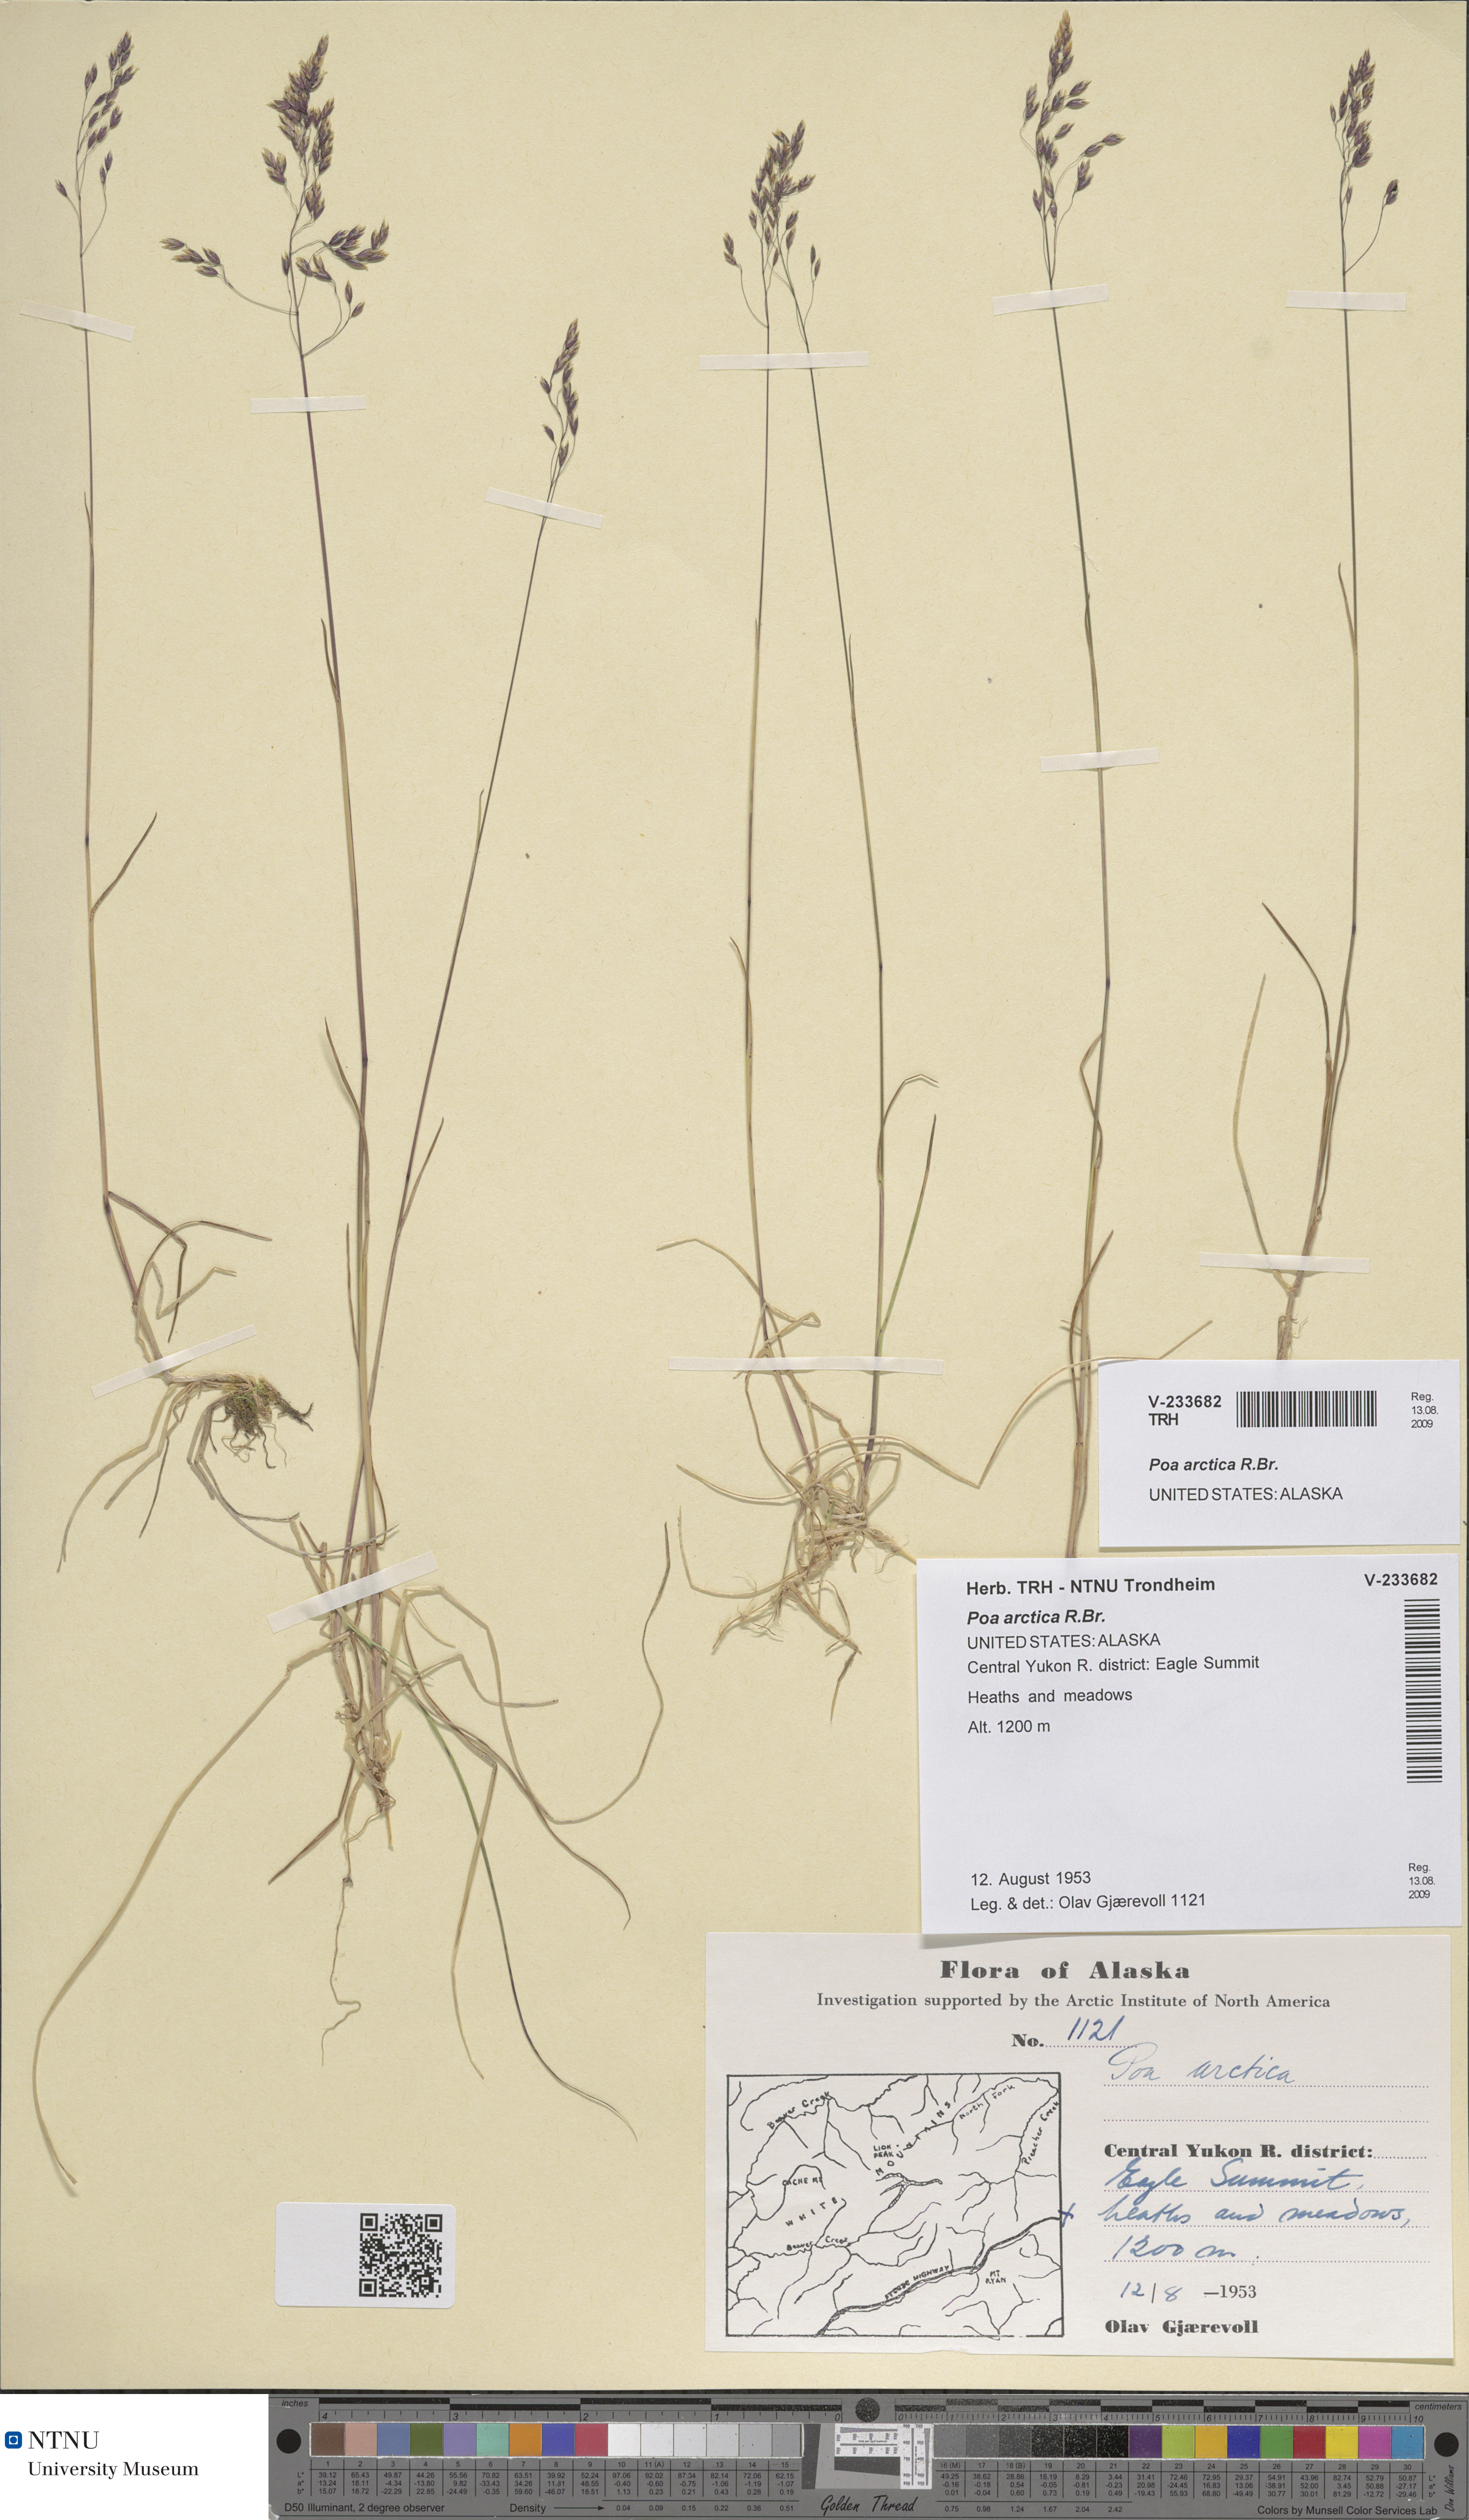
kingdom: Plantae
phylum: Tracheophyta
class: Liliopsida
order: Poales
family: Poaceae
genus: Poa
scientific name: Poa arctica
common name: Arctic bluegrass
